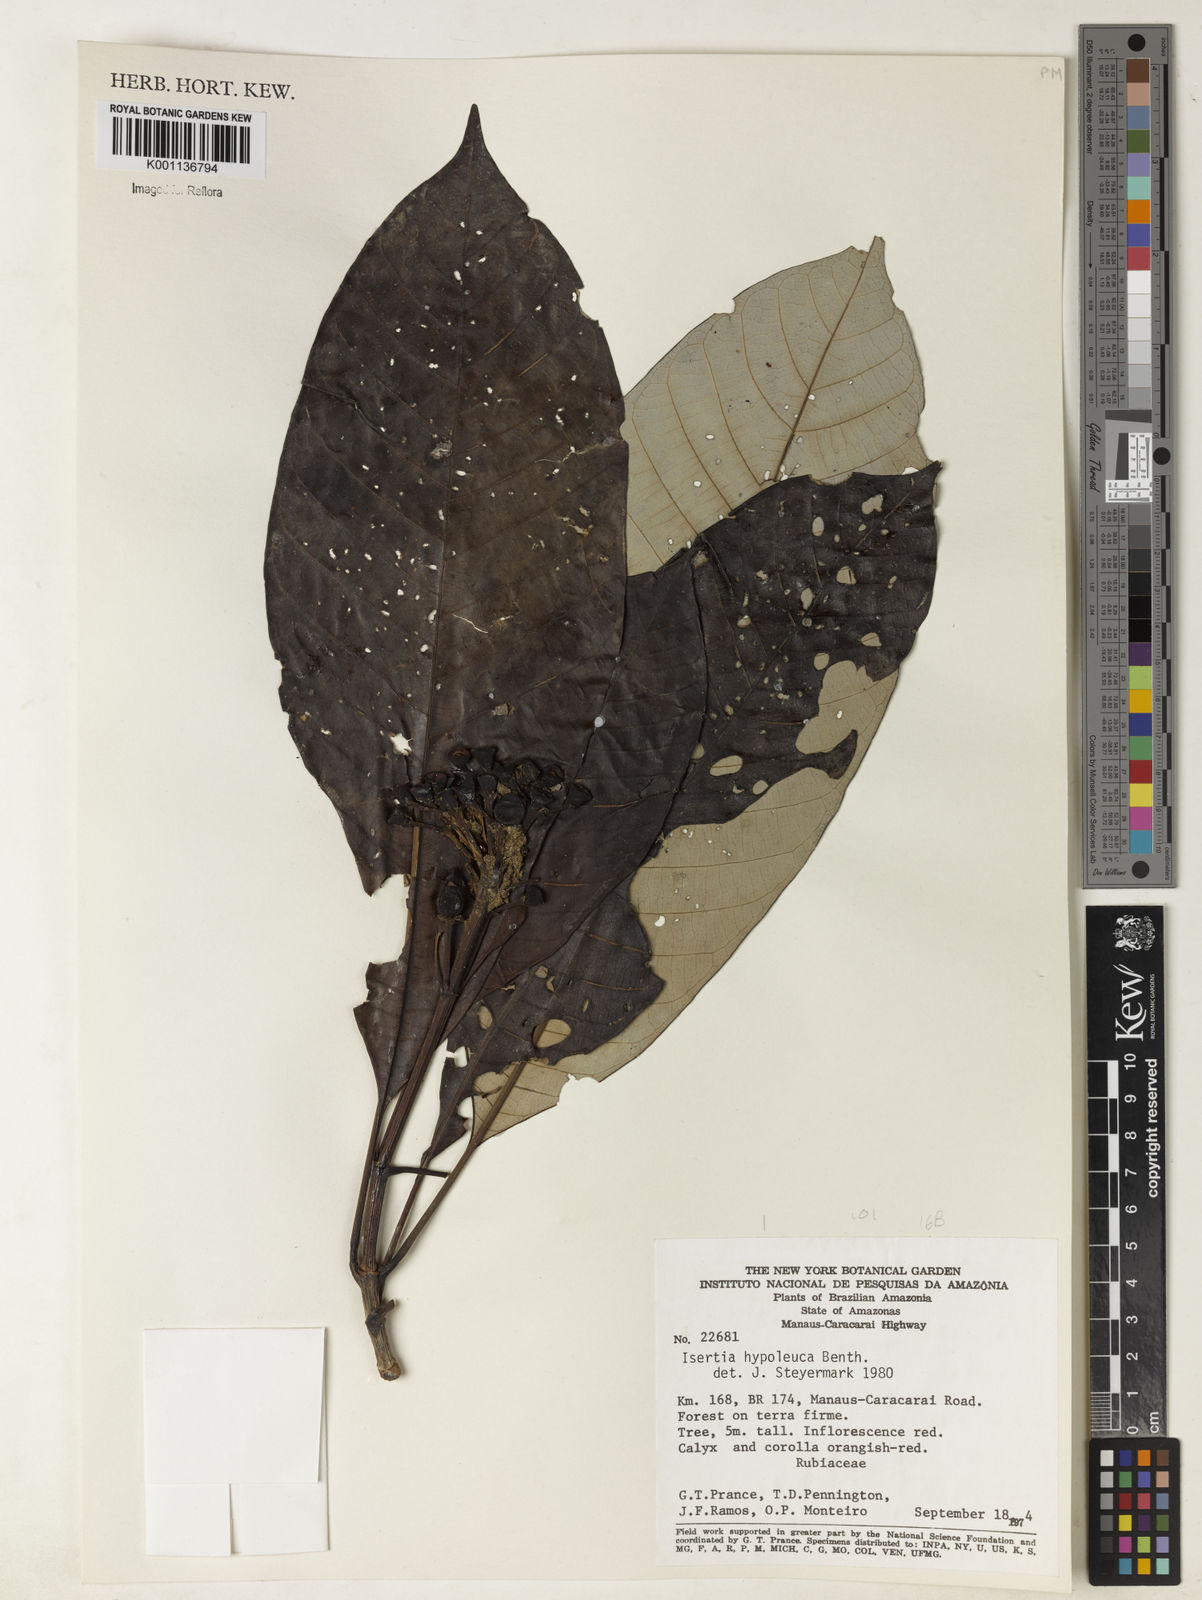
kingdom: Plantae
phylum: Tracheophyta
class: Magnoliopsida
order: Gentianales
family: Rubiaceae
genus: Isertia
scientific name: Isertia hypoleuca
